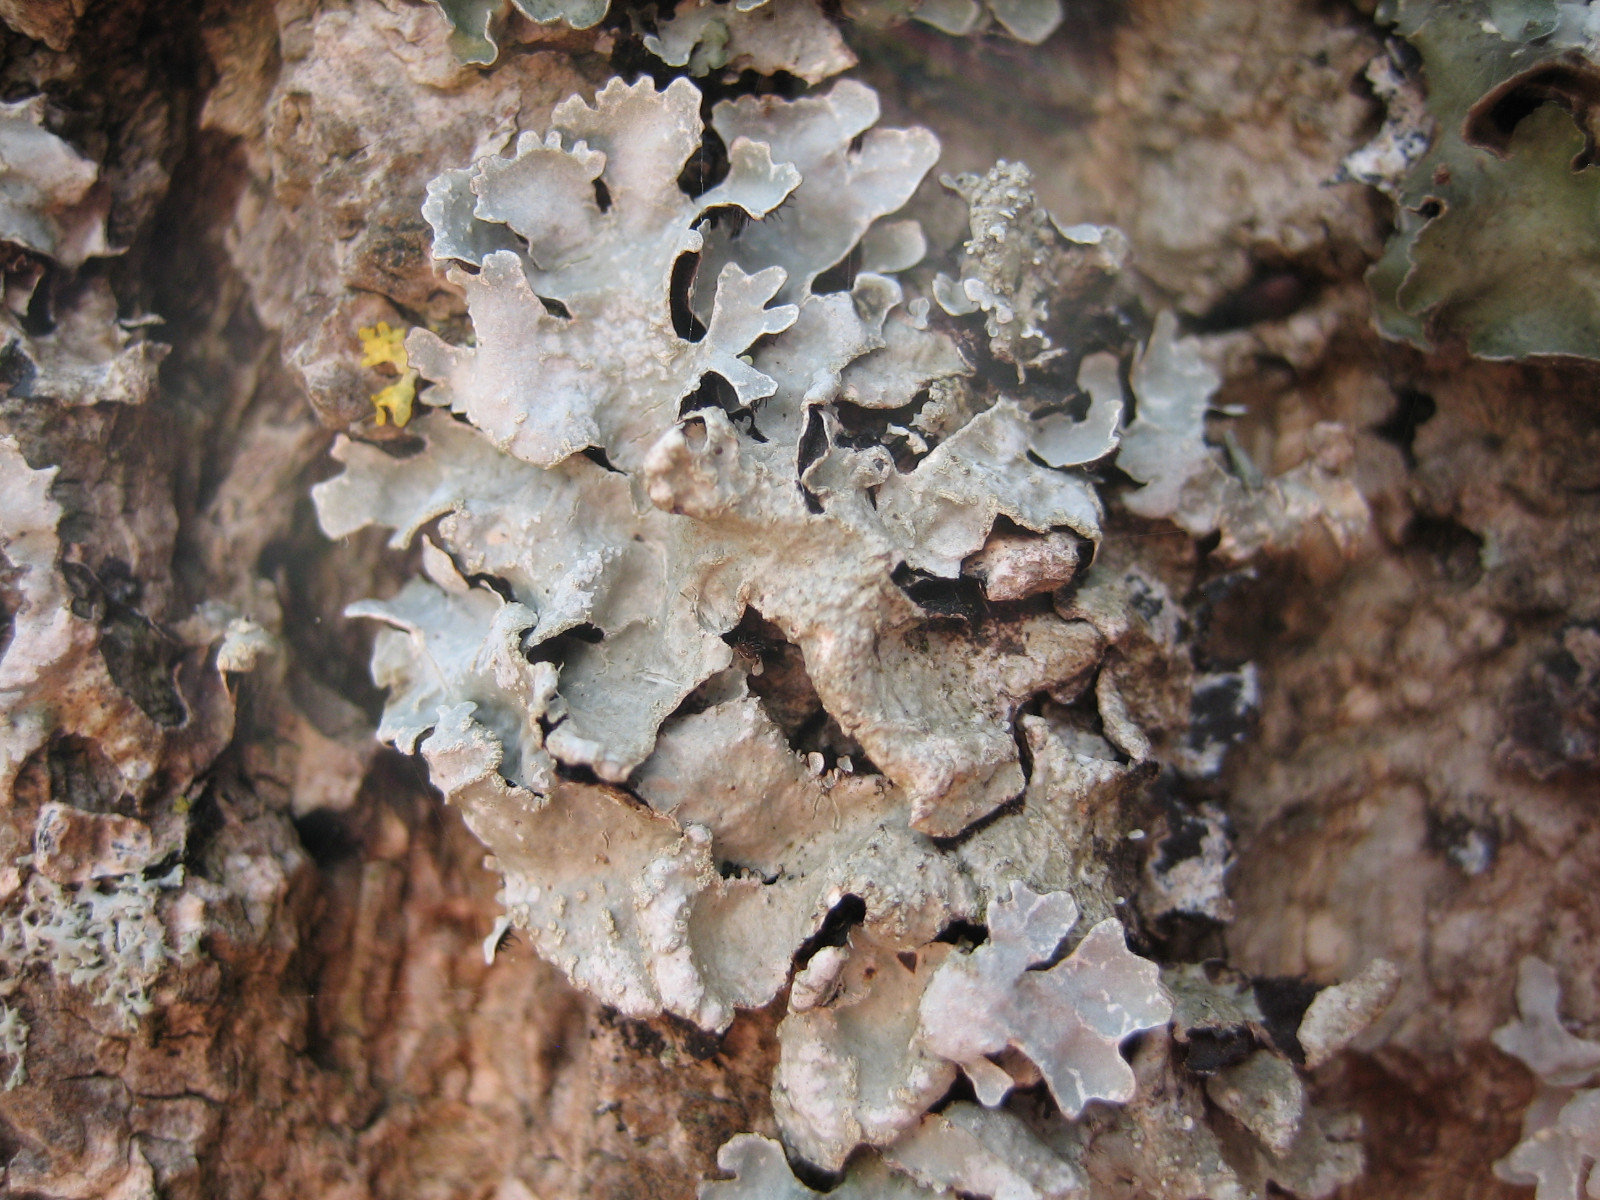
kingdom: Fungi
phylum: Ascomycota
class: Lecanoromycetes
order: Lecanorales
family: Parmeliaceae
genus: Parmelia
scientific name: Parmelia sulcata
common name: rynket skållav
